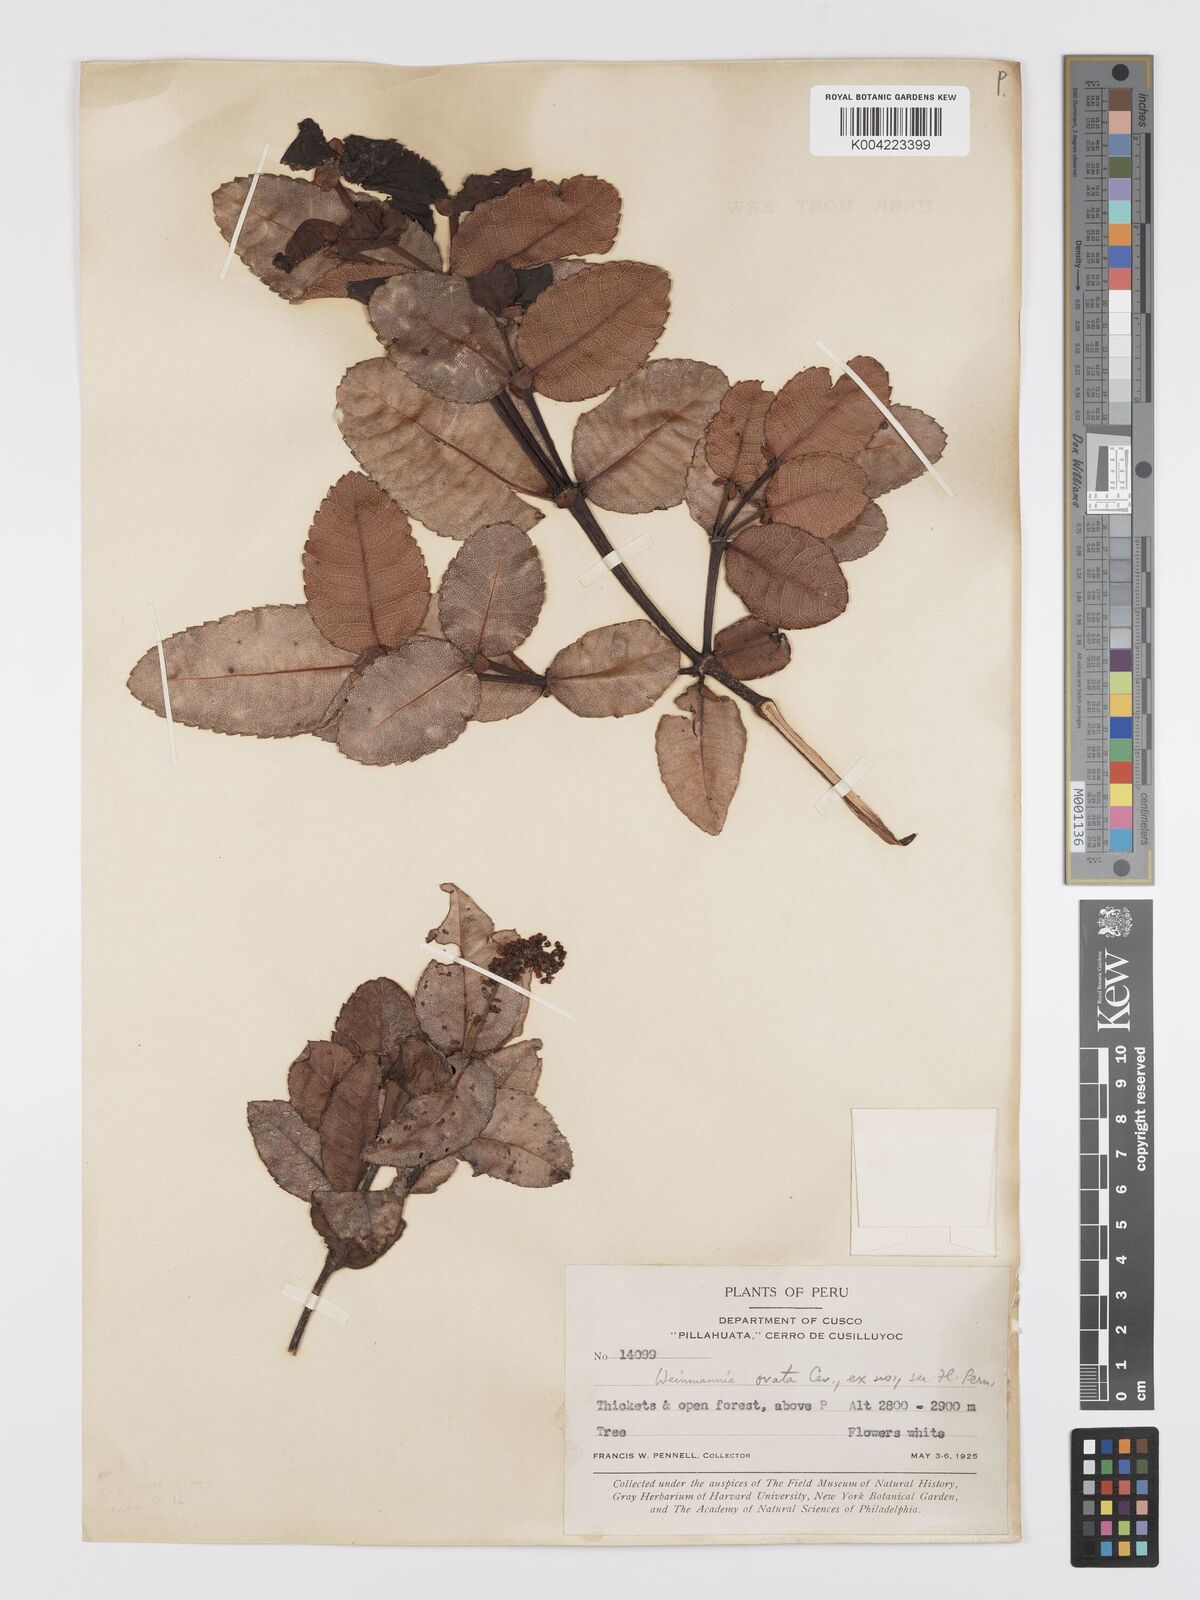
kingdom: Plantae
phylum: Tracheophyta
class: Magnoliopsida
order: Oxalidales
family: Cunoniaceae
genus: Weinmannia
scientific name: Weinmannia ovata
